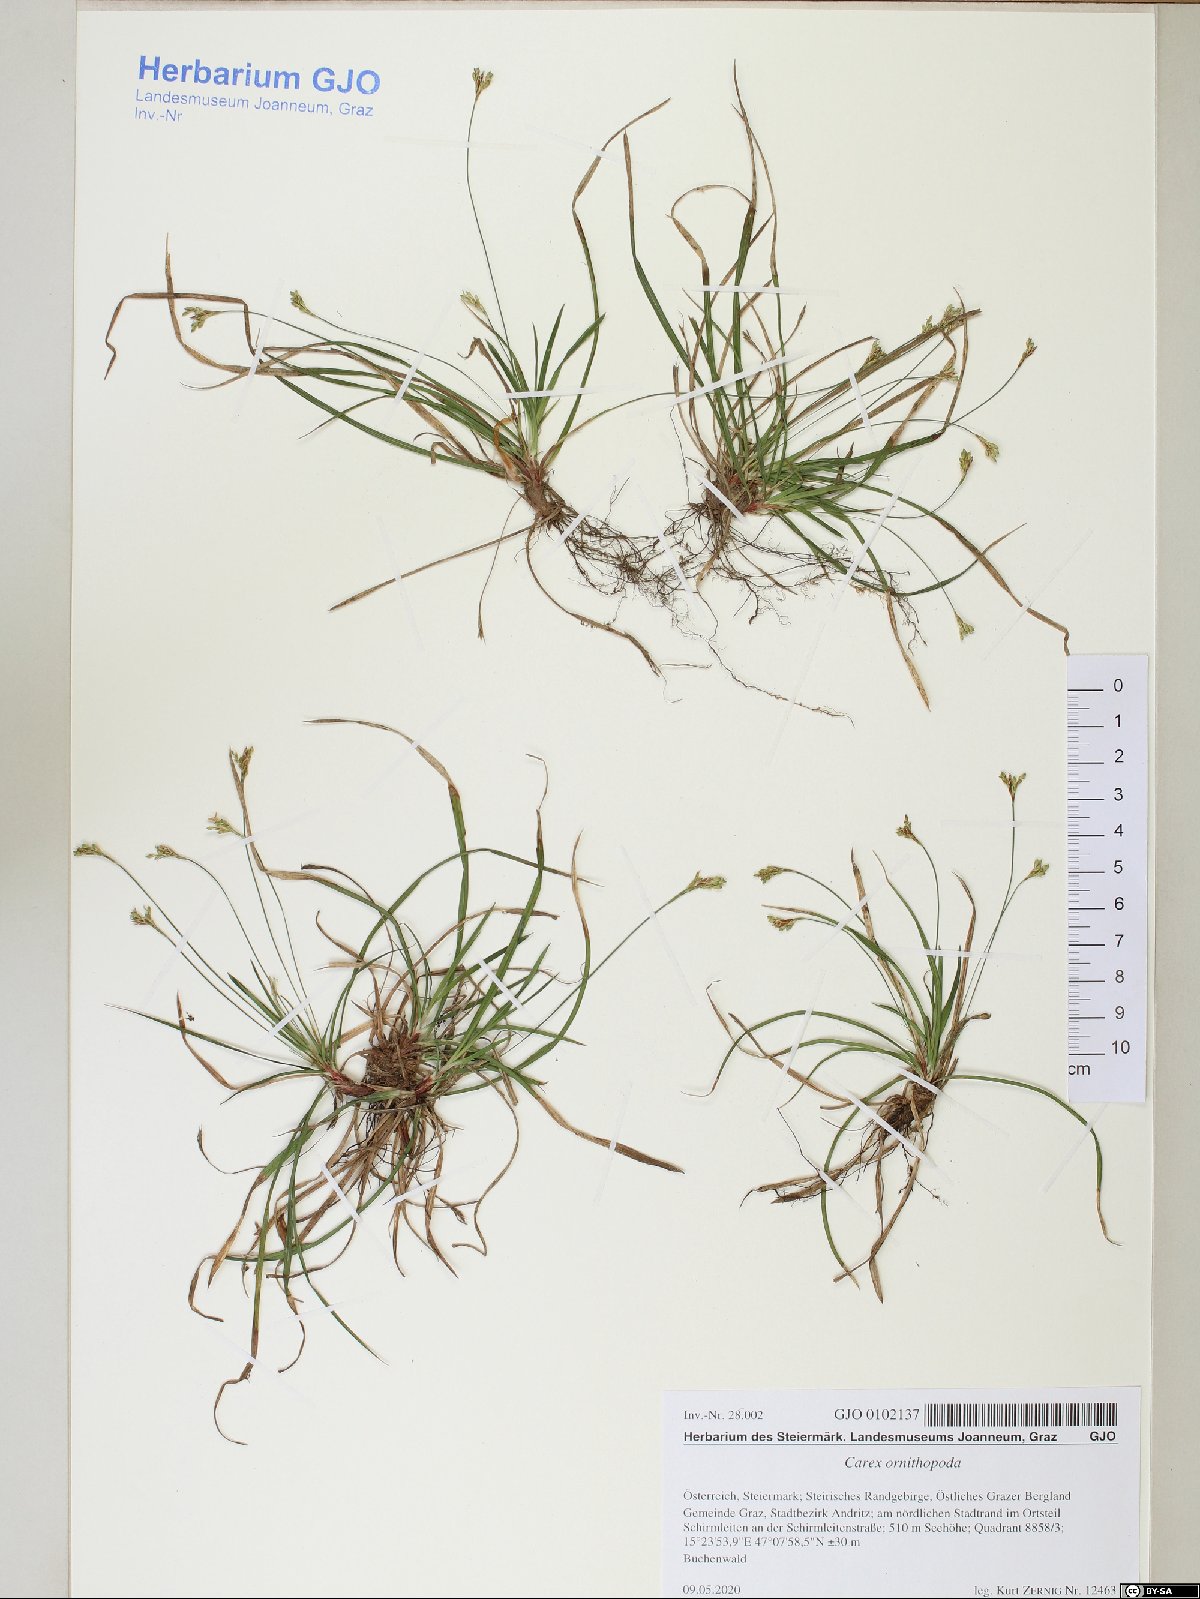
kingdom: Plantae
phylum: Tracheophyta
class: Liliopsida
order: Poales
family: Cyperaceae
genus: Carex
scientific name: Carex ornithopoda
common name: Bird's-foot sedge
